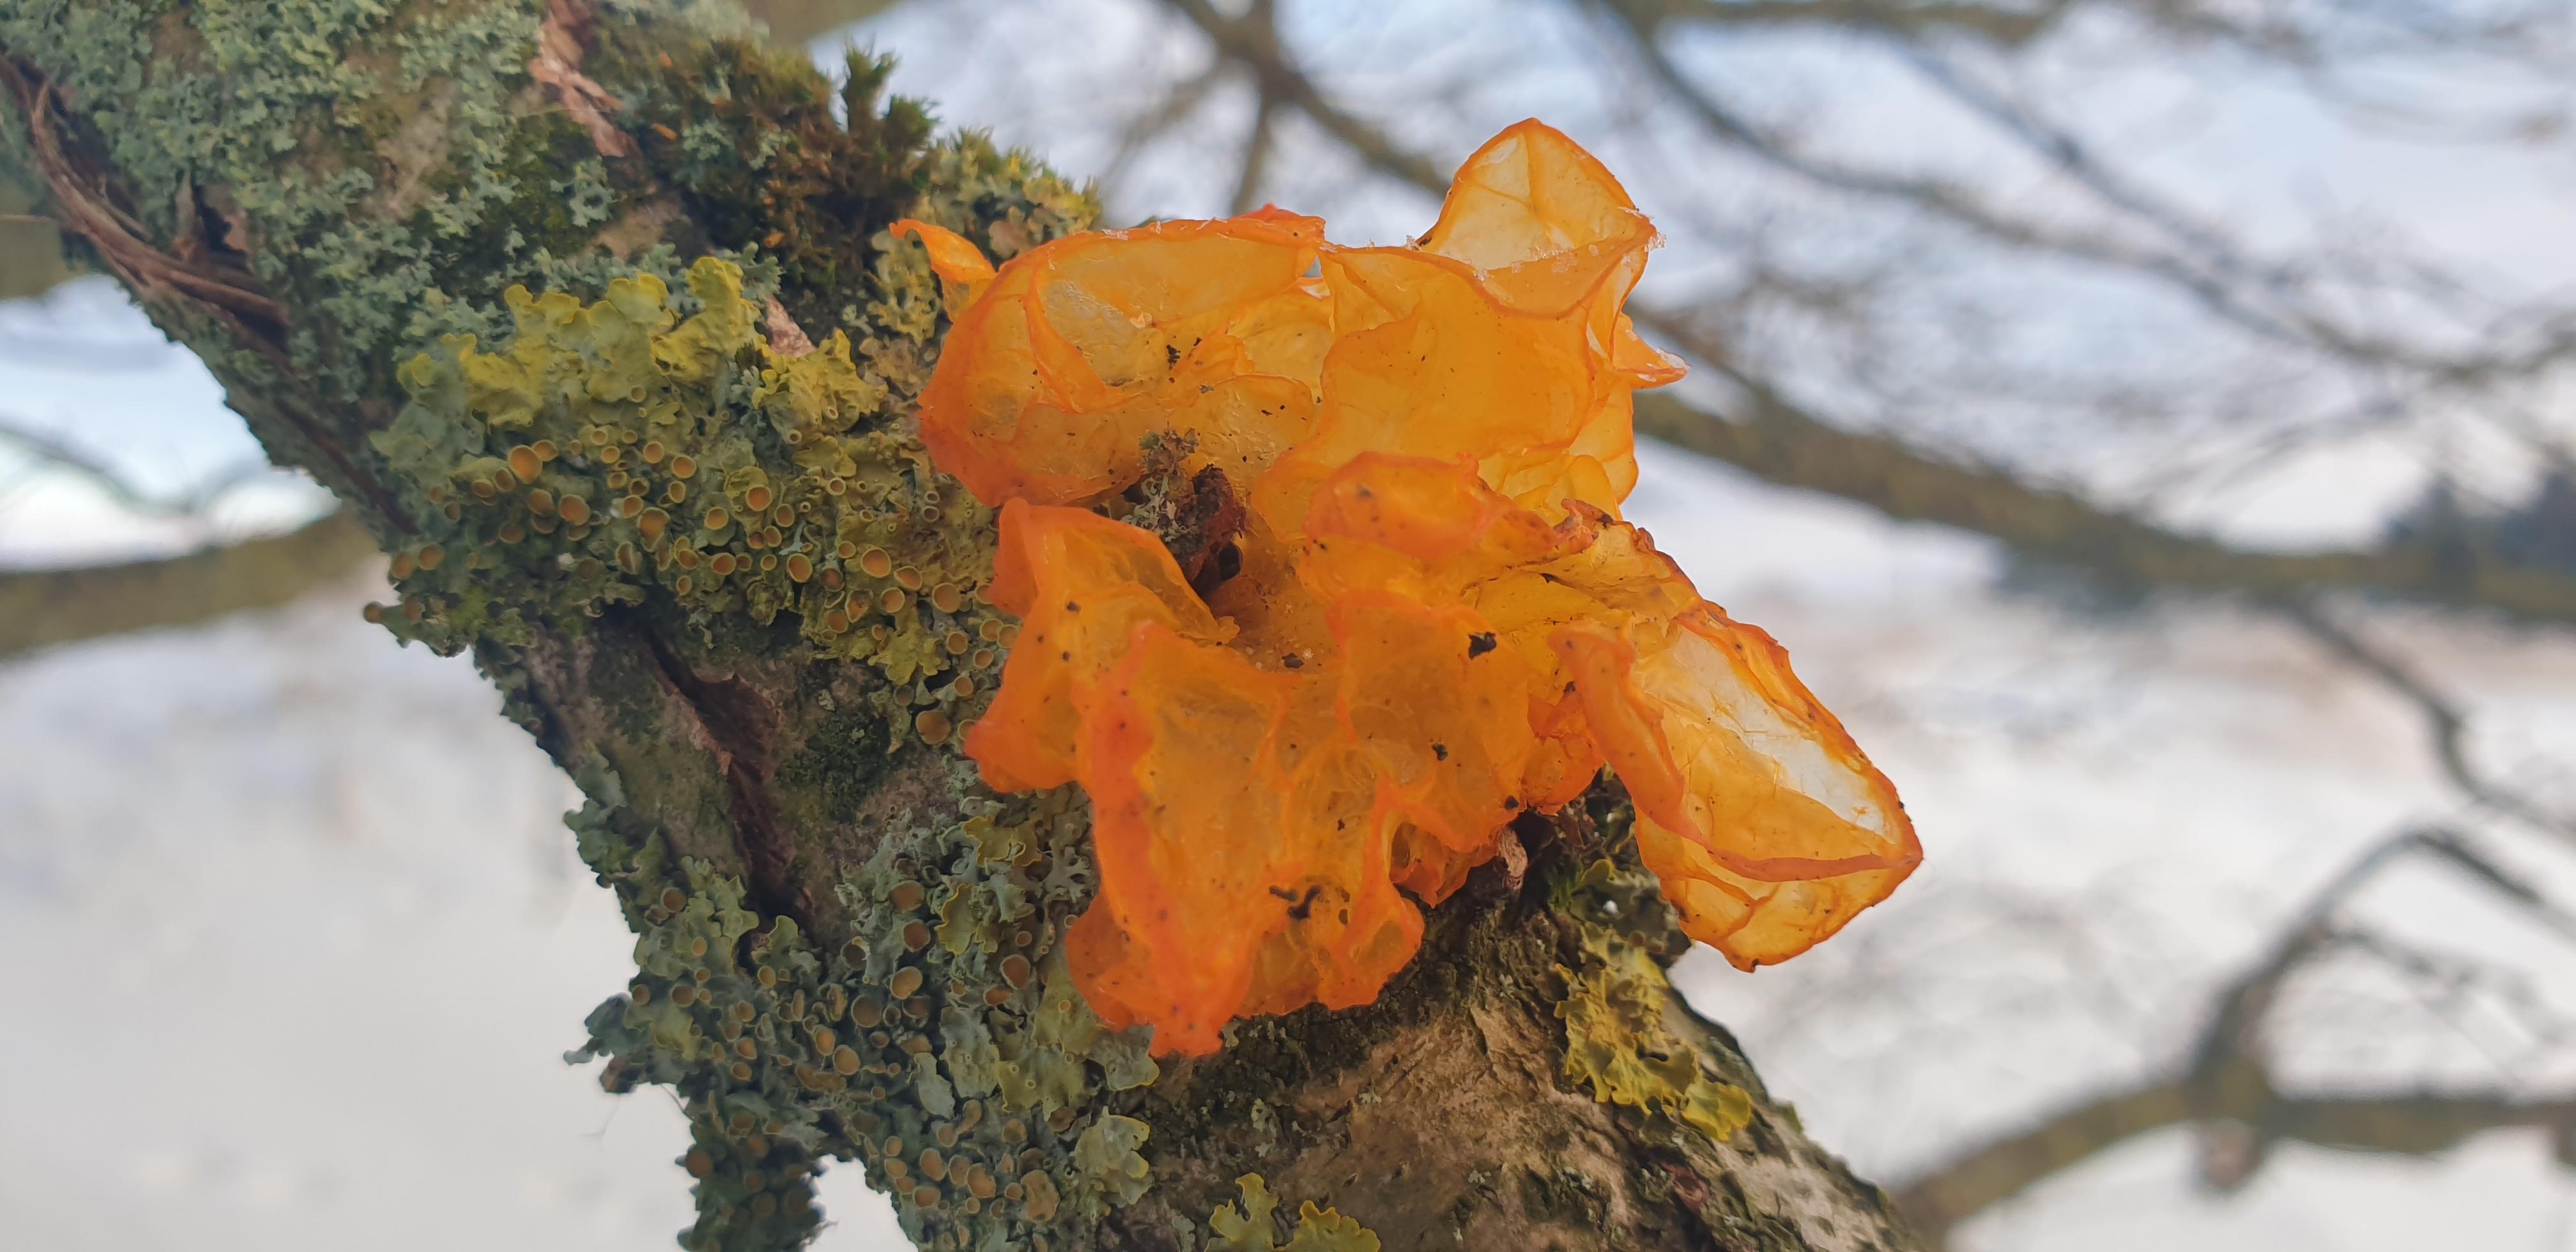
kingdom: Fungi
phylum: Basidiomycota
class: Tremellomycetes
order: Tremellales
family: Tremellaceae
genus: Tremella
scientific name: Tremella mesenterica
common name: gul bævresvamp
